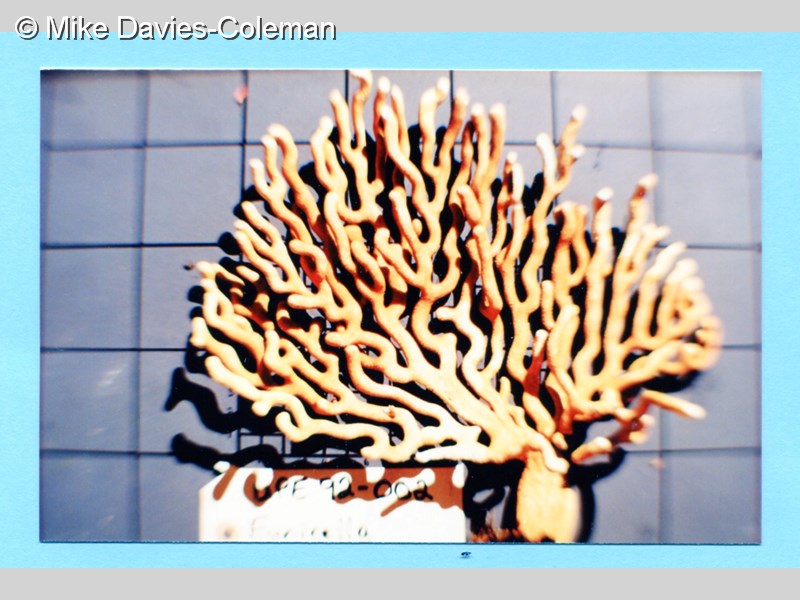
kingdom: Animalia
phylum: Cnidaria
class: Anthozoa
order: Malacalcyonacea
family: Eunicellidae
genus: Eunicella
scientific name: Eunicella tricoronata
